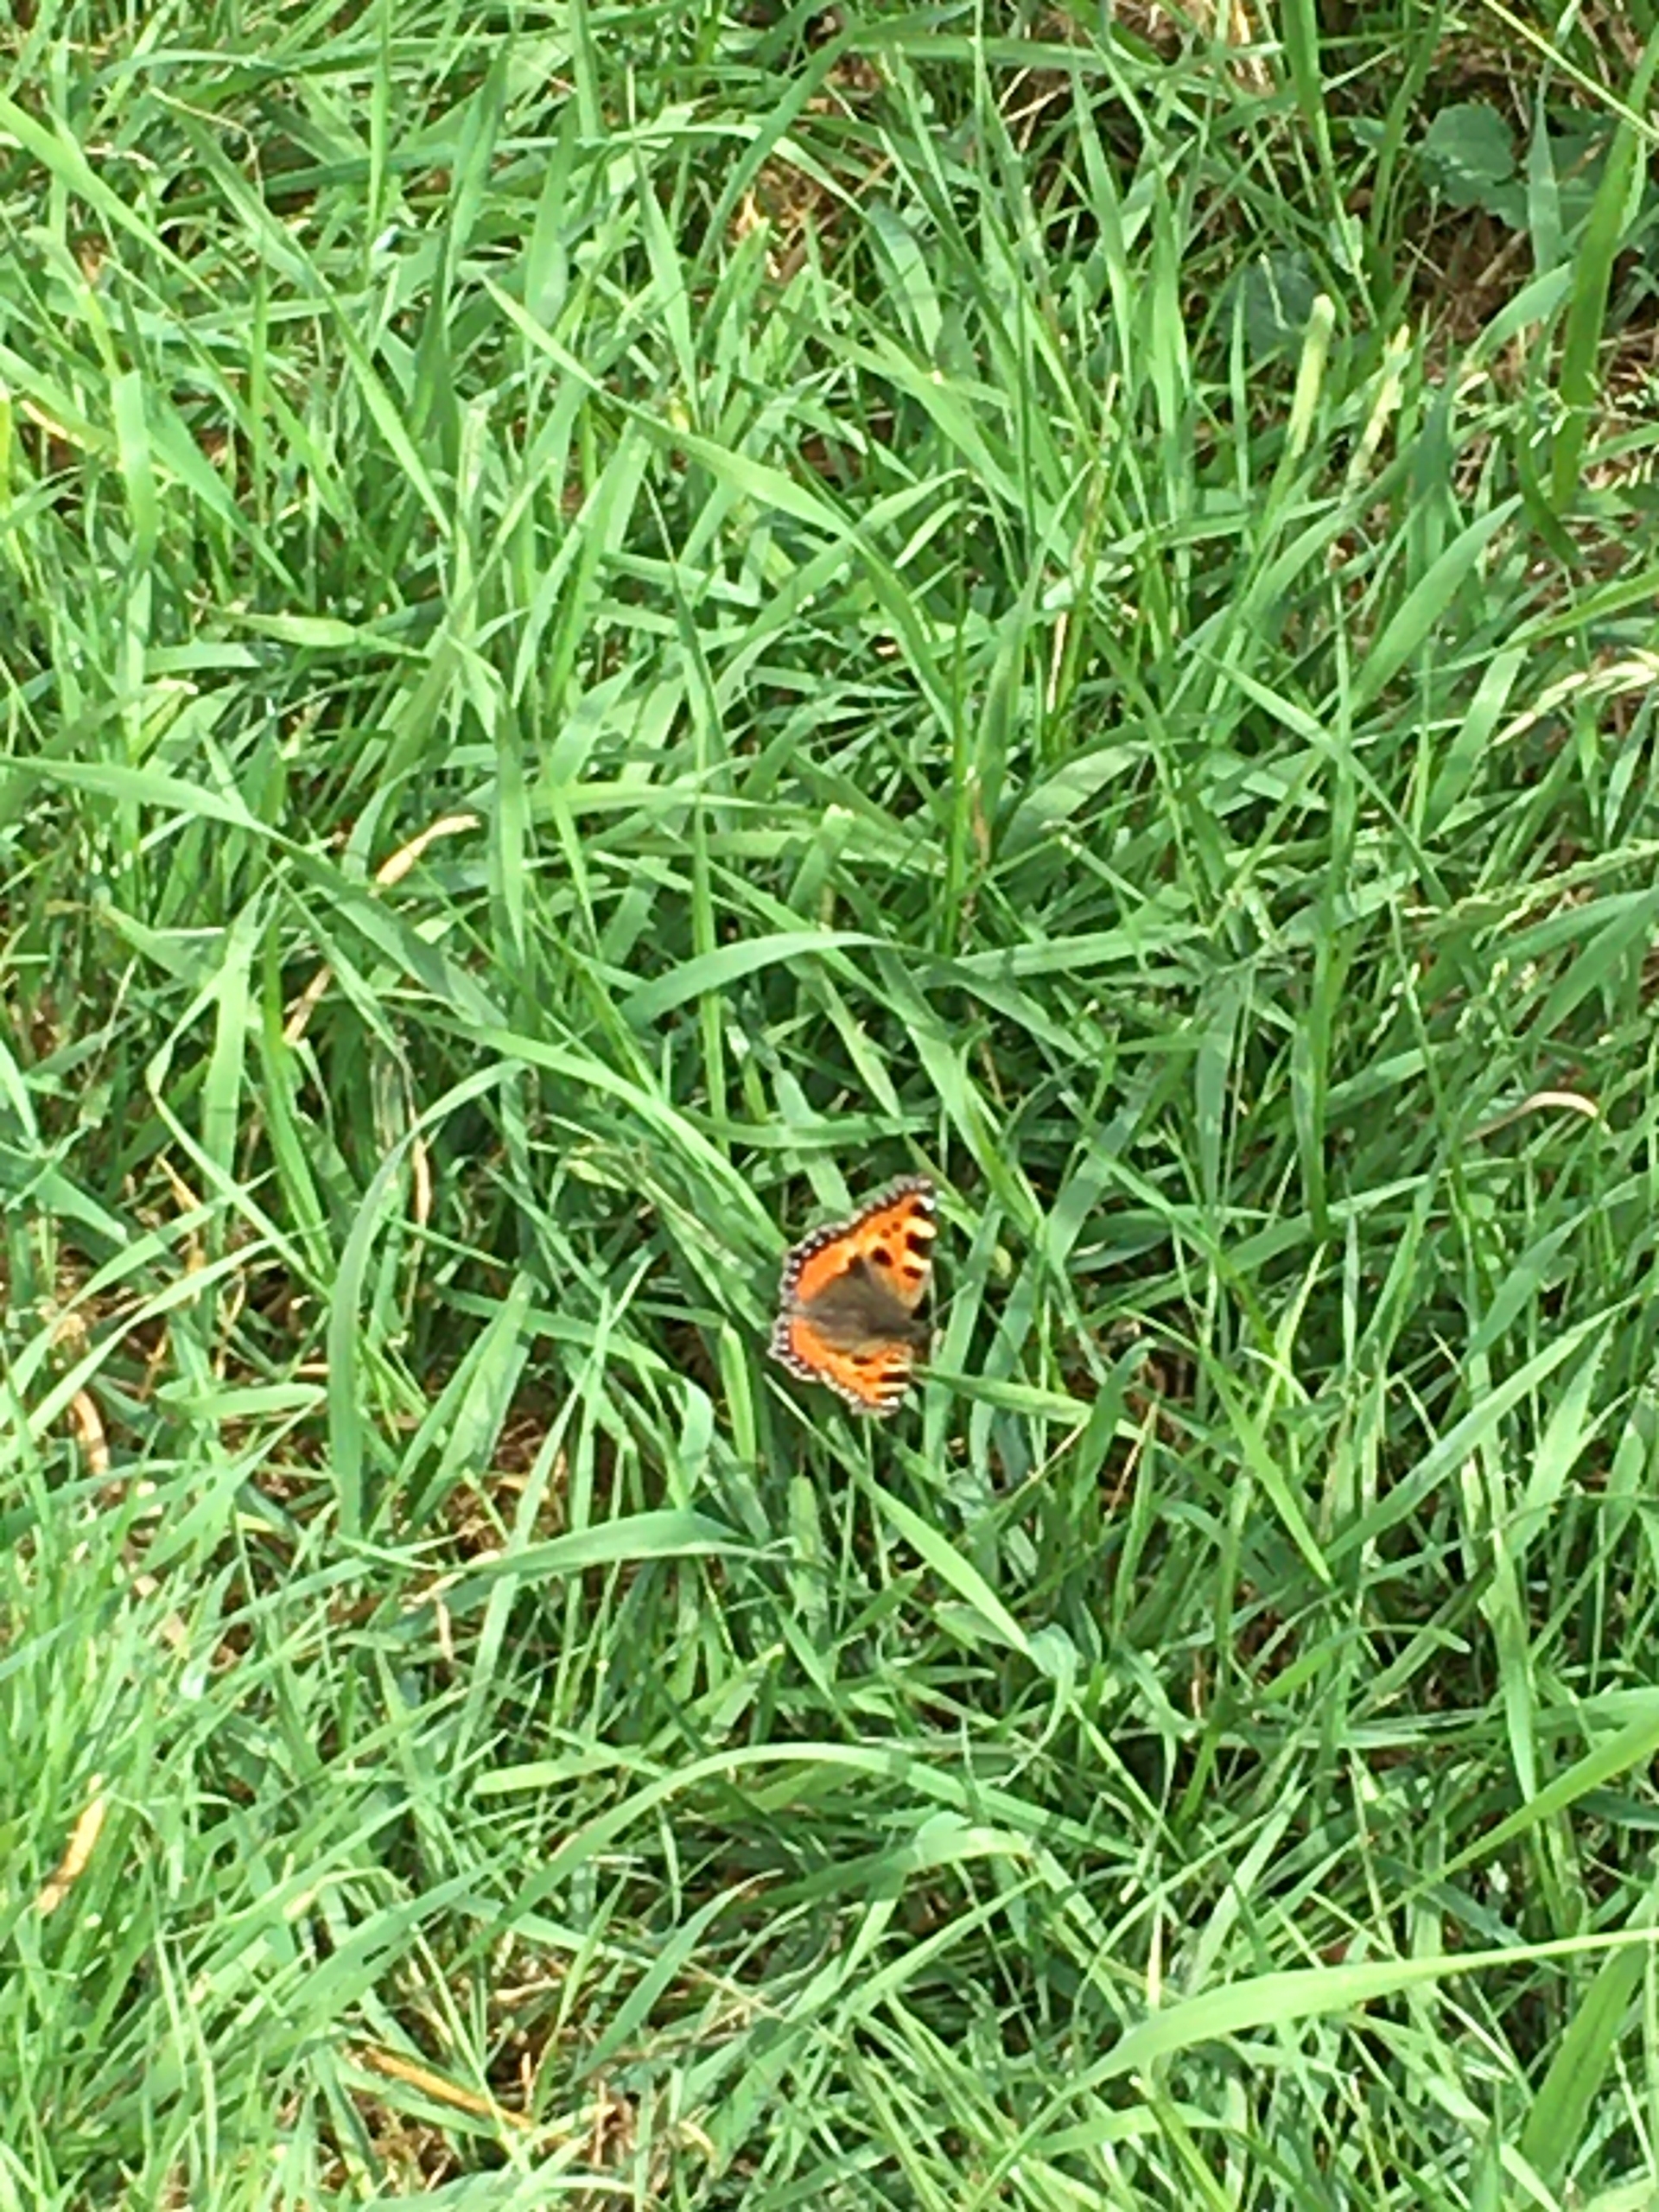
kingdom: Animalia
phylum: Arthropoda
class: Insecta
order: Lepidoptera
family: Nymphalidae
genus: Aglais
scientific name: Aglais urticae
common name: Nældens takvinge
